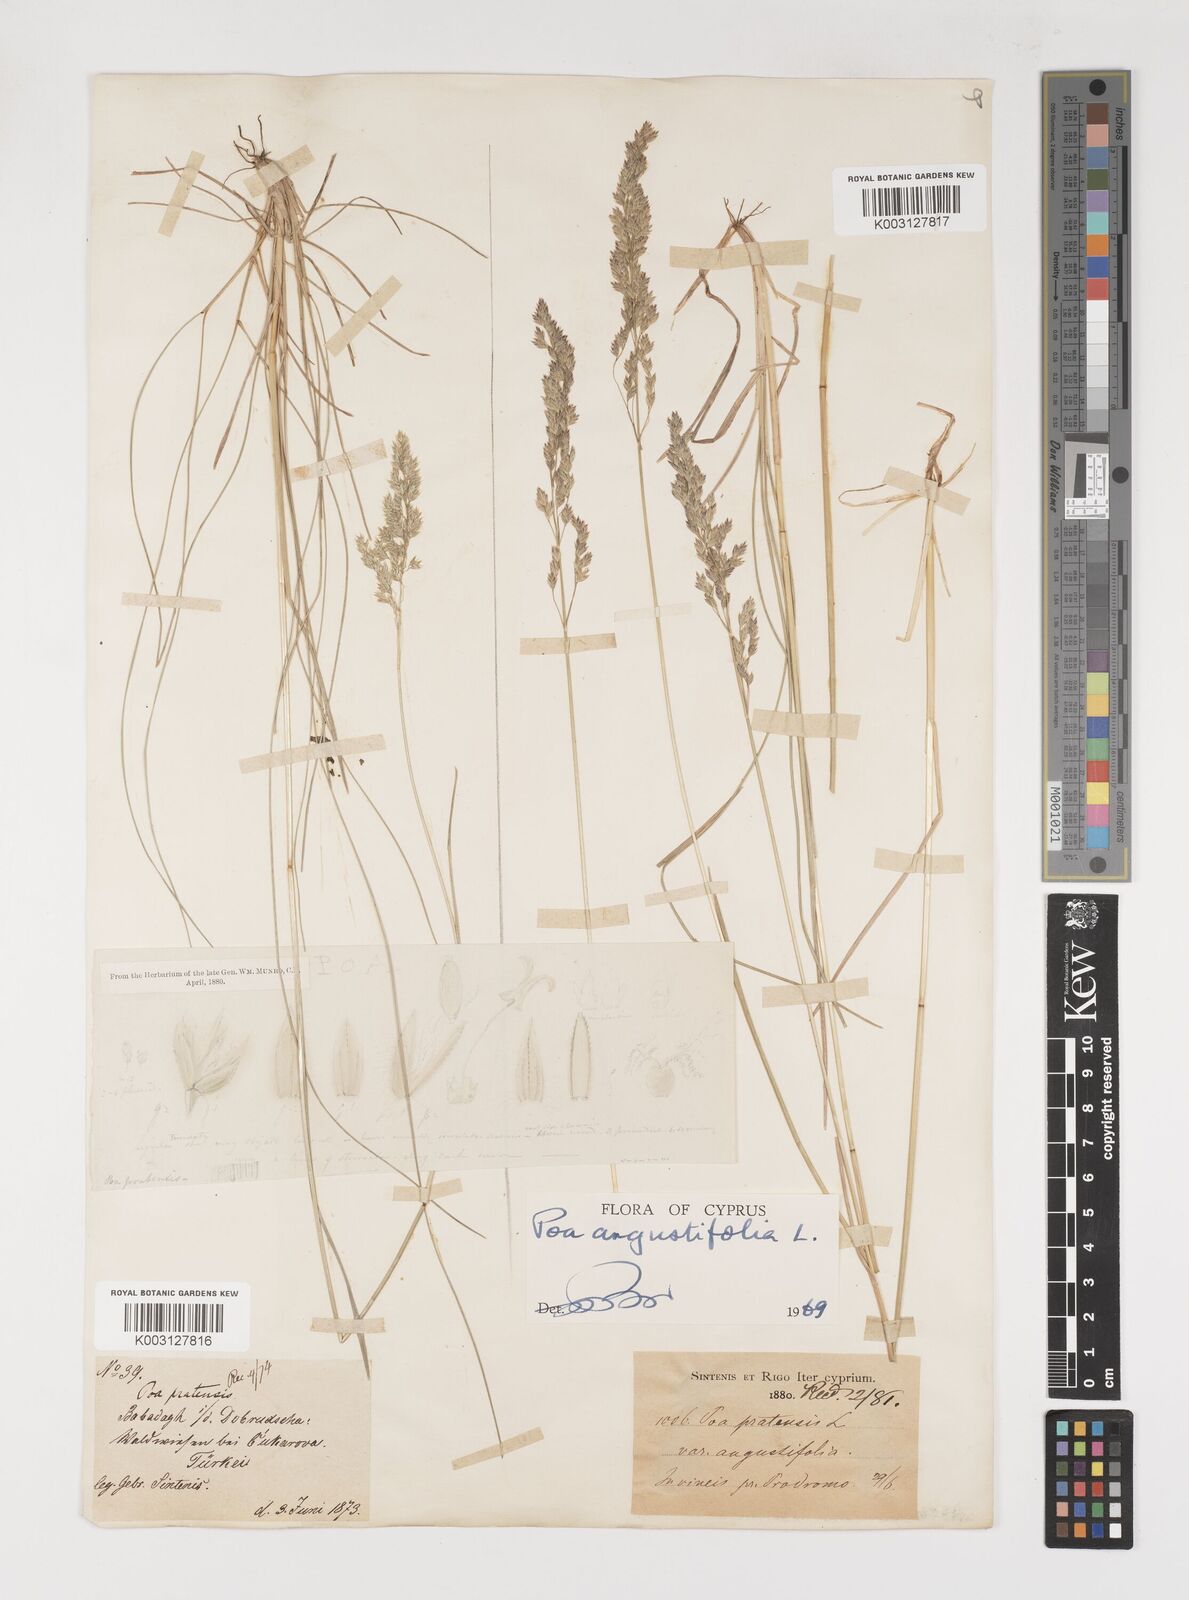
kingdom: Plantae
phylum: Tracheophyta
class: Liliopsida
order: Poales
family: Poaceae
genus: Poa
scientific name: Poa angustifolia
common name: Narrow-leaved meadow-grass
